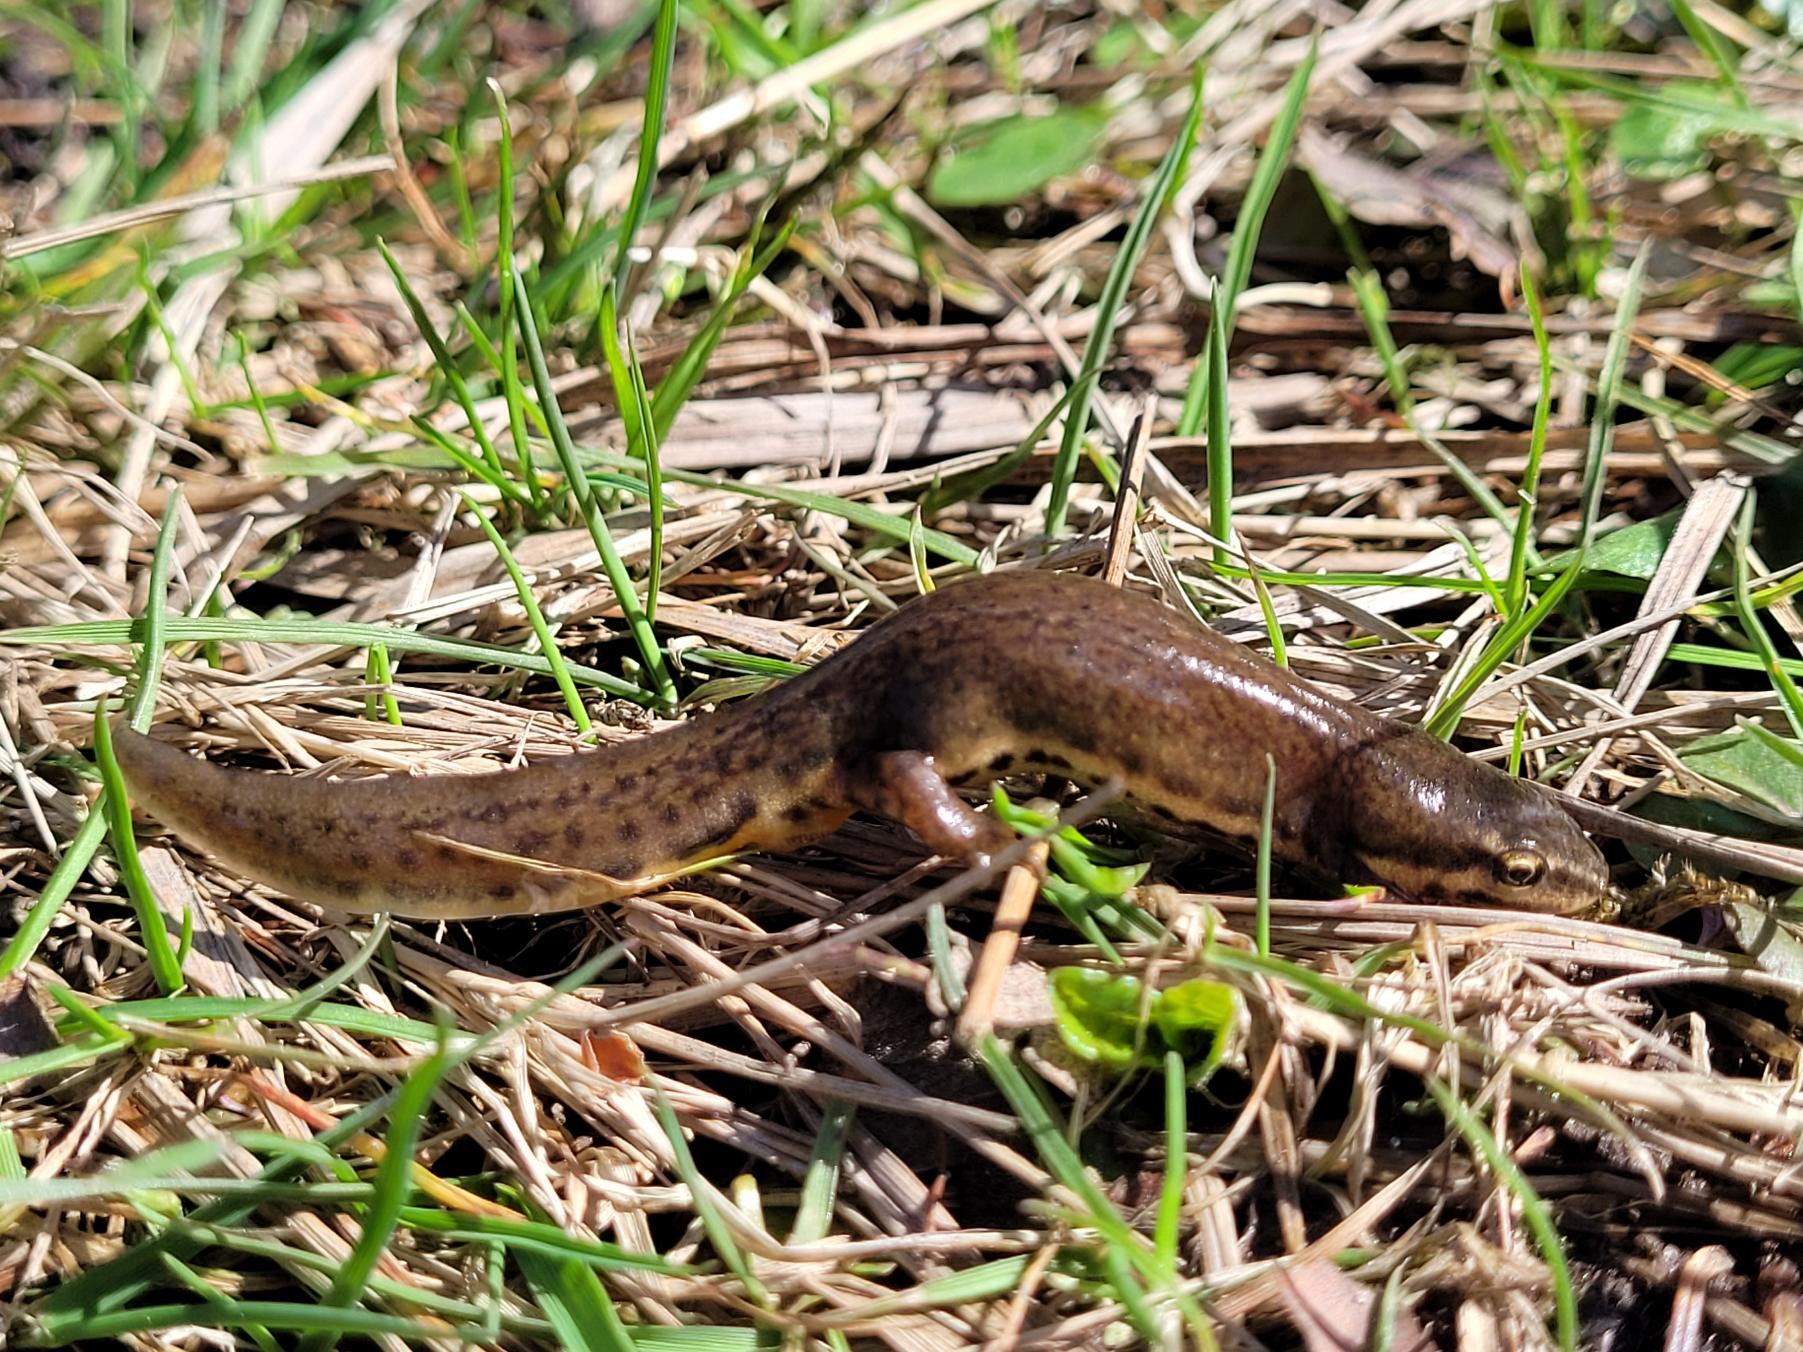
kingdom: Animalia
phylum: Chordata
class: Amphibia
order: Caudata
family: Salamandridae
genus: Lissotriton
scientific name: Lissotriton vulgaris
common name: Lille vandsalamander
